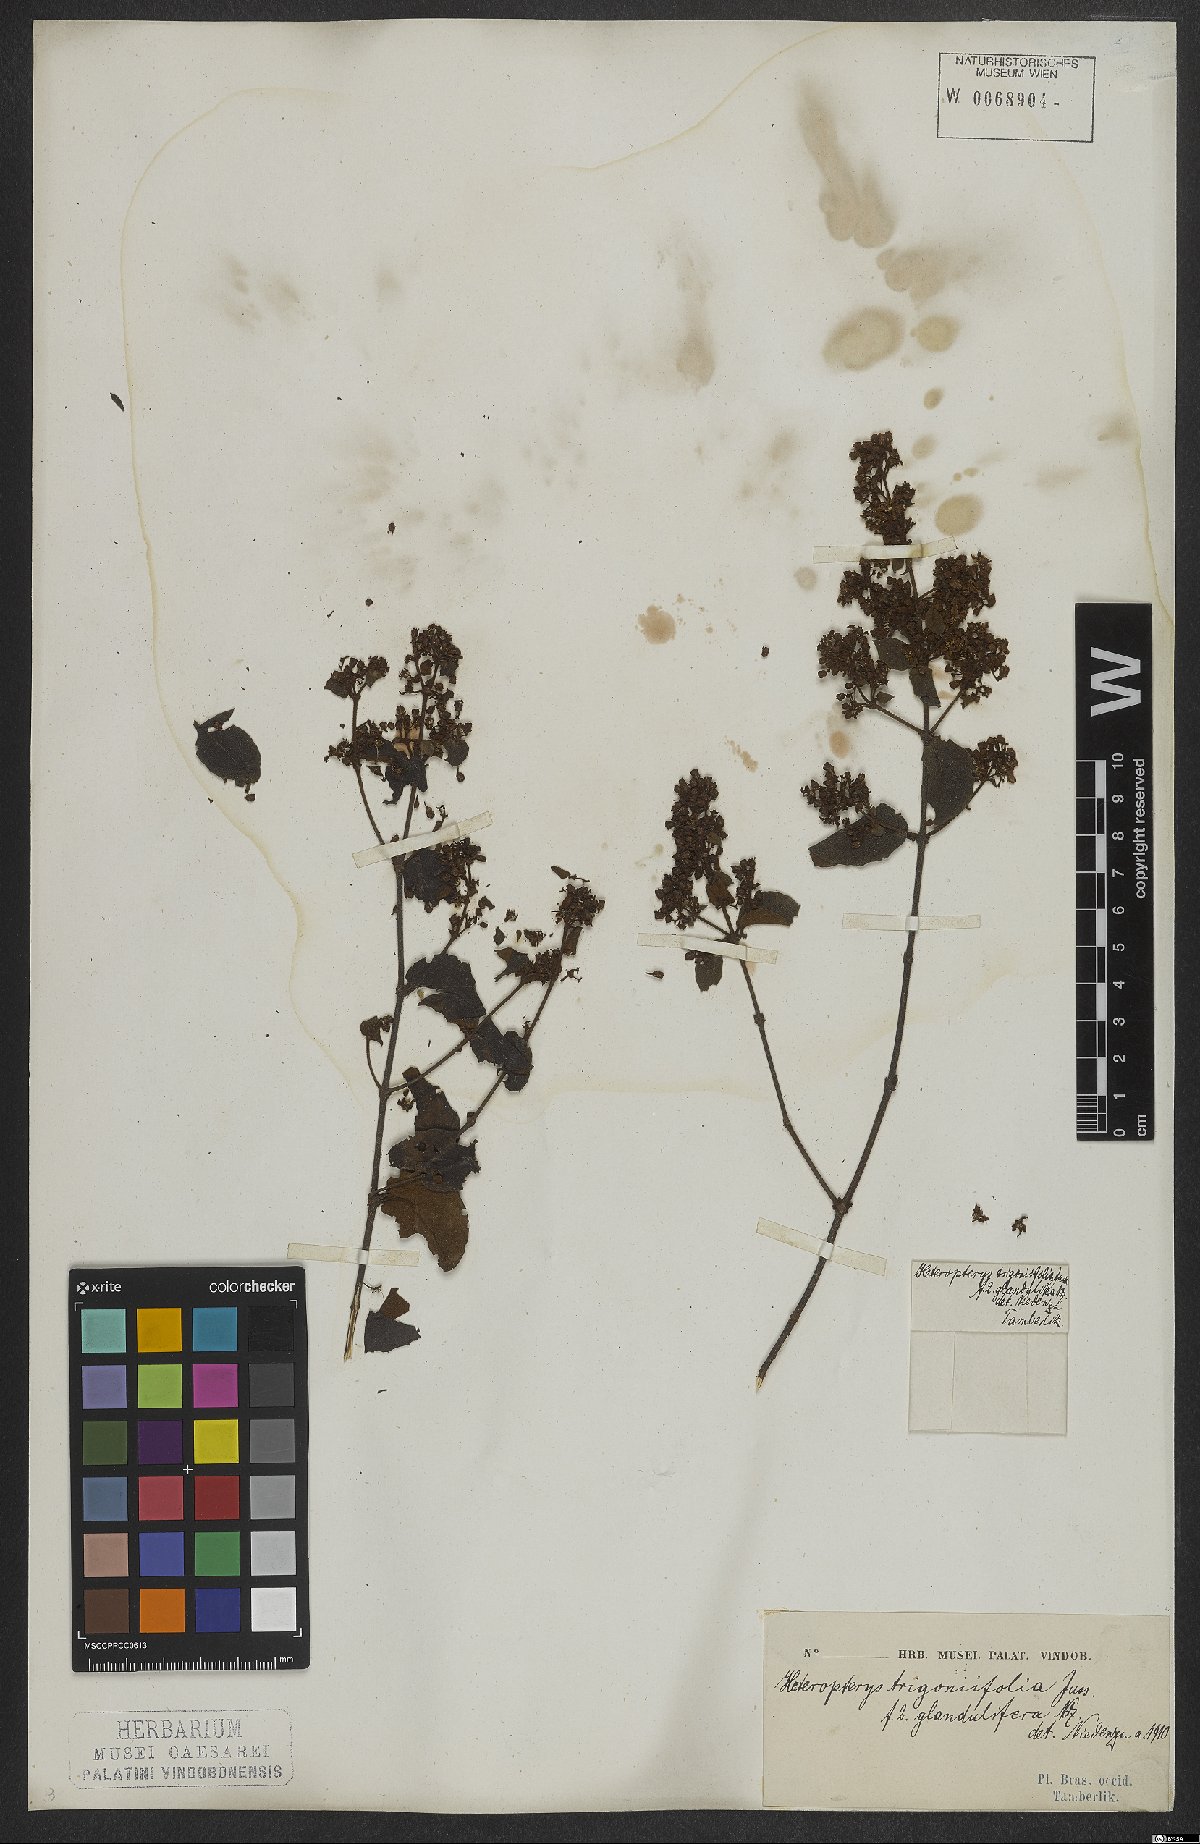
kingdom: Plantae
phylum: Tracheophyta
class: Magnoliopsida
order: Malpighiales
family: Malpighiaceae
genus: Heteropterys
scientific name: Heteropterys trigoniifolia
